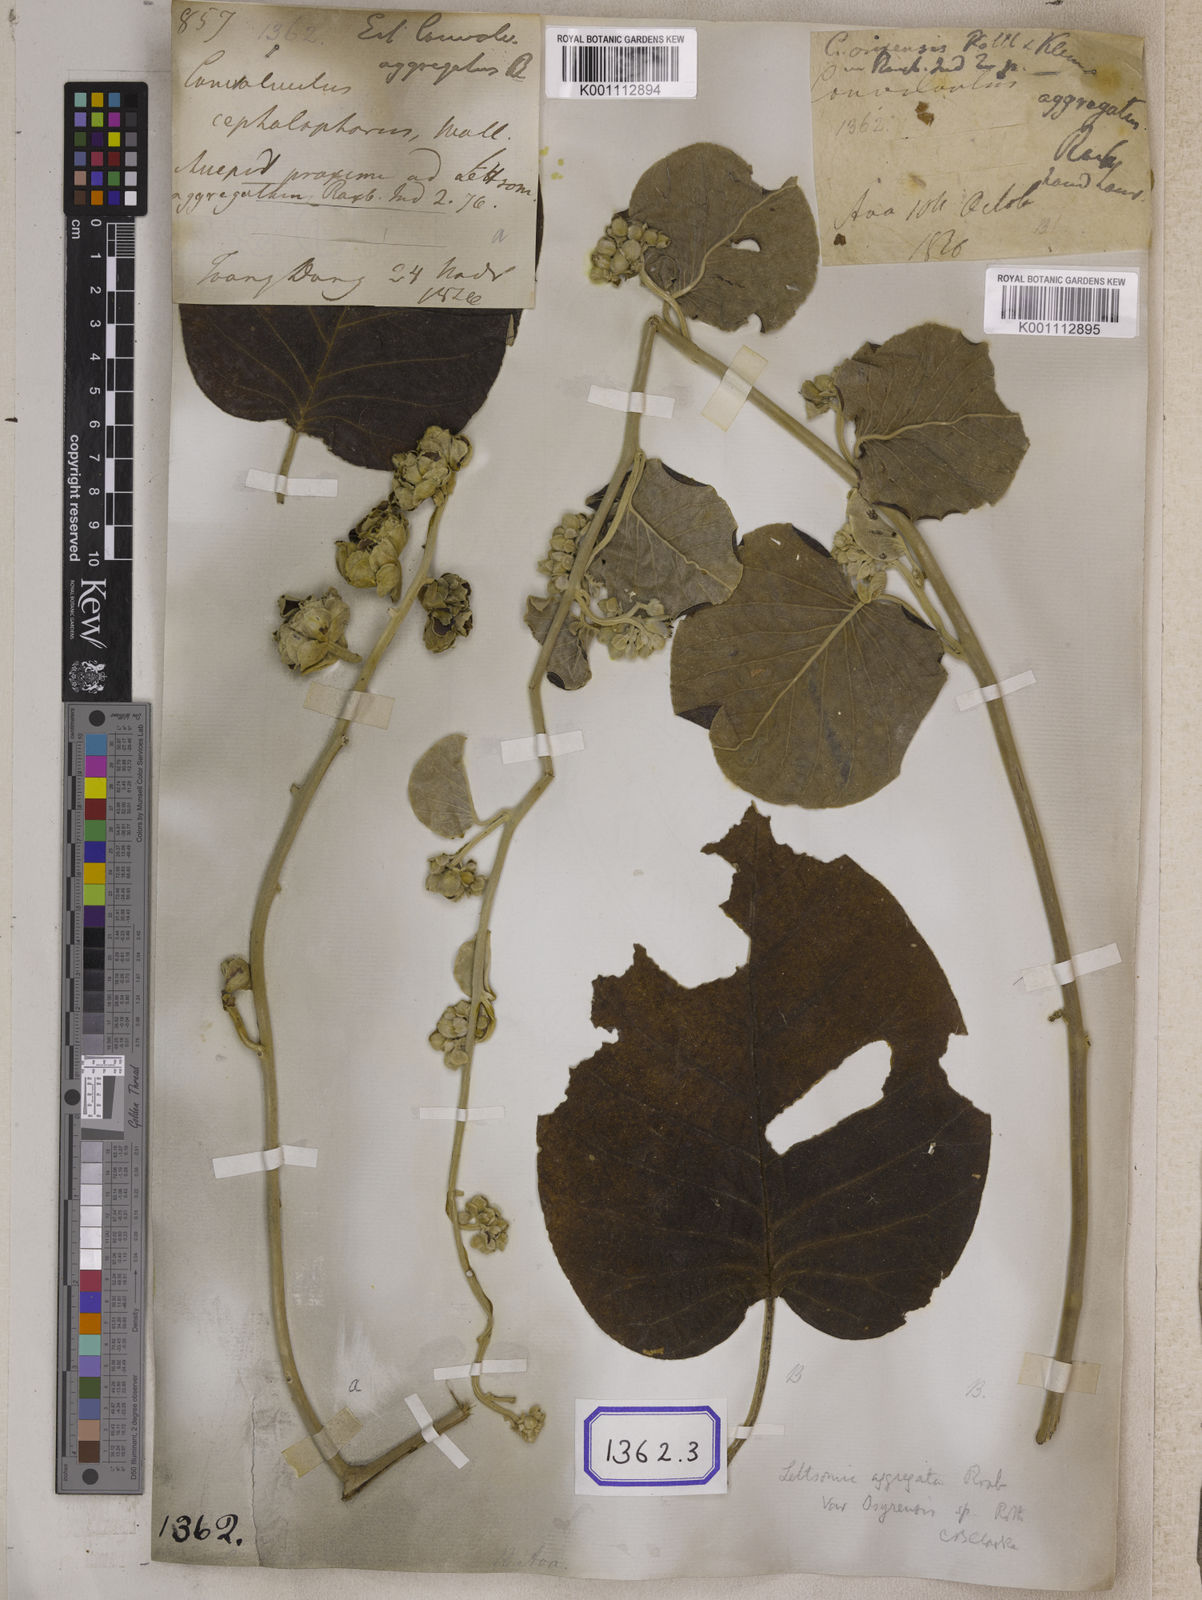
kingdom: Plantae
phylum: Tracheophyta
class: Polypodiopsida
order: Hymenophyllales
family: Hymenophyllaceae
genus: Hymenophyllum
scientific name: Hymenophyllum
